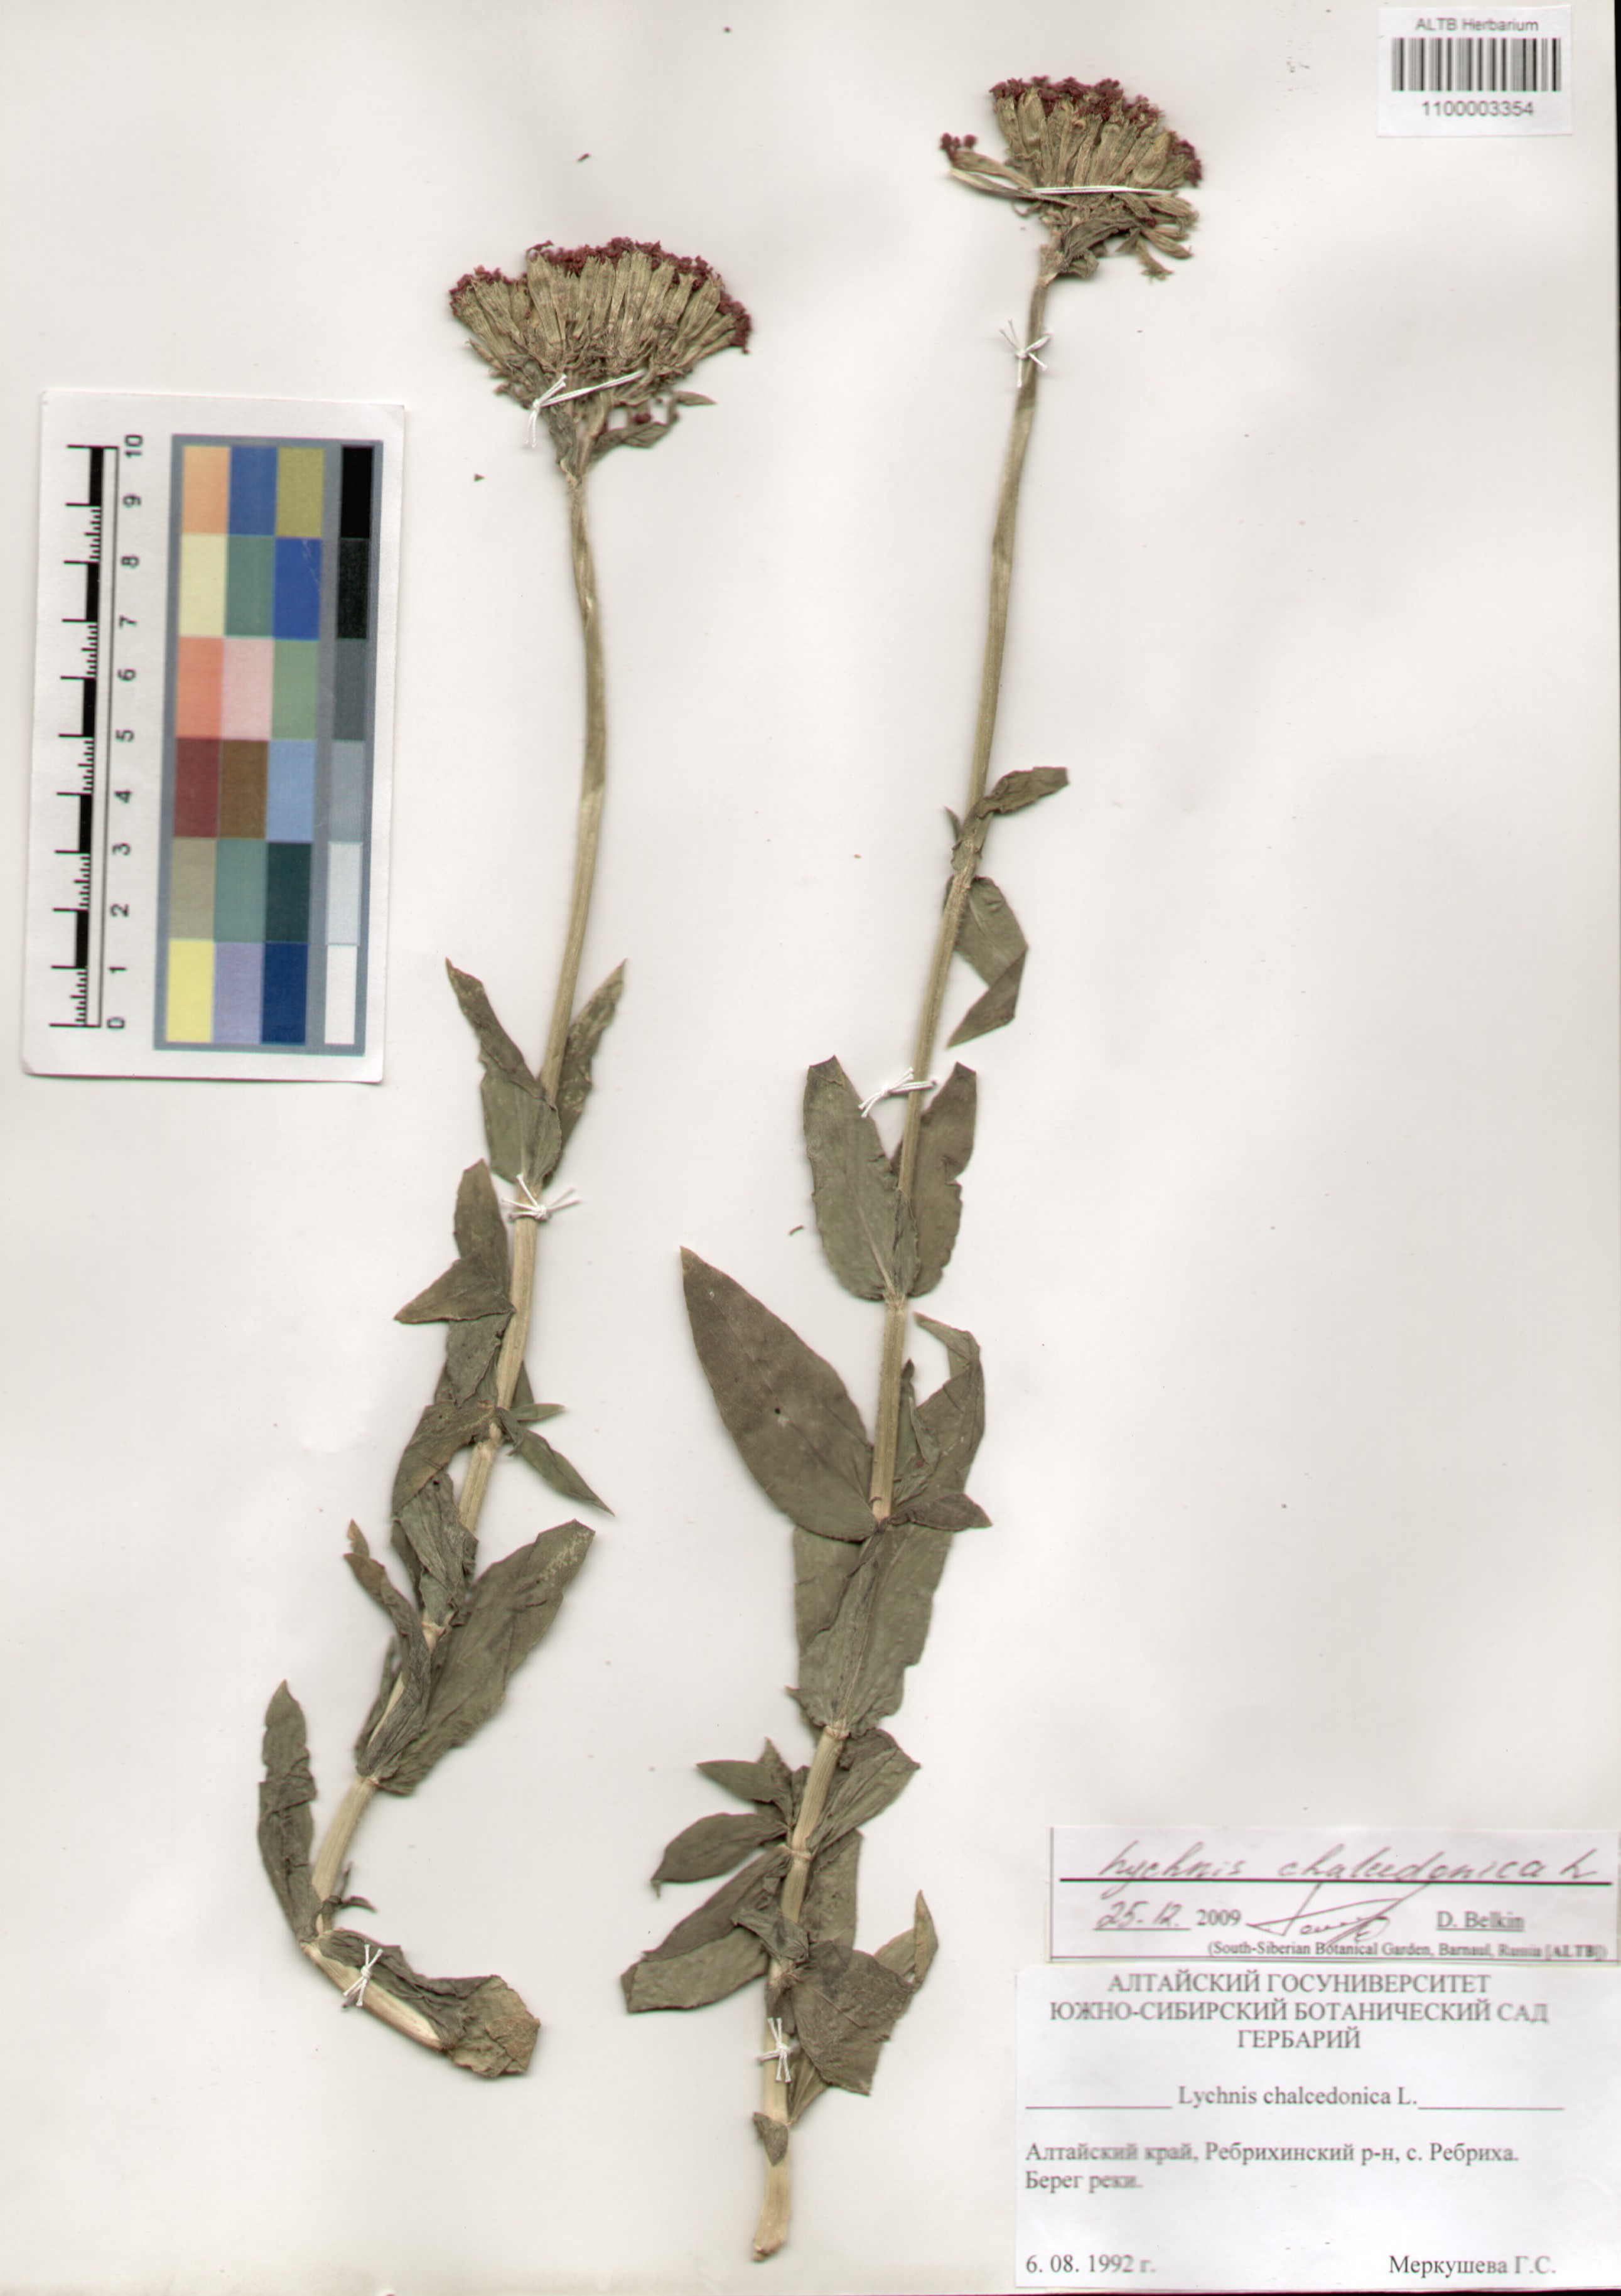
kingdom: Plantae
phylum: Tracheophyta
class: Magnoliopsida
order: Caryophyllales
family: Caryophyllaceae
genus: Silene
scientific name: Silene chalcedonica
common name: Maltese-cross
